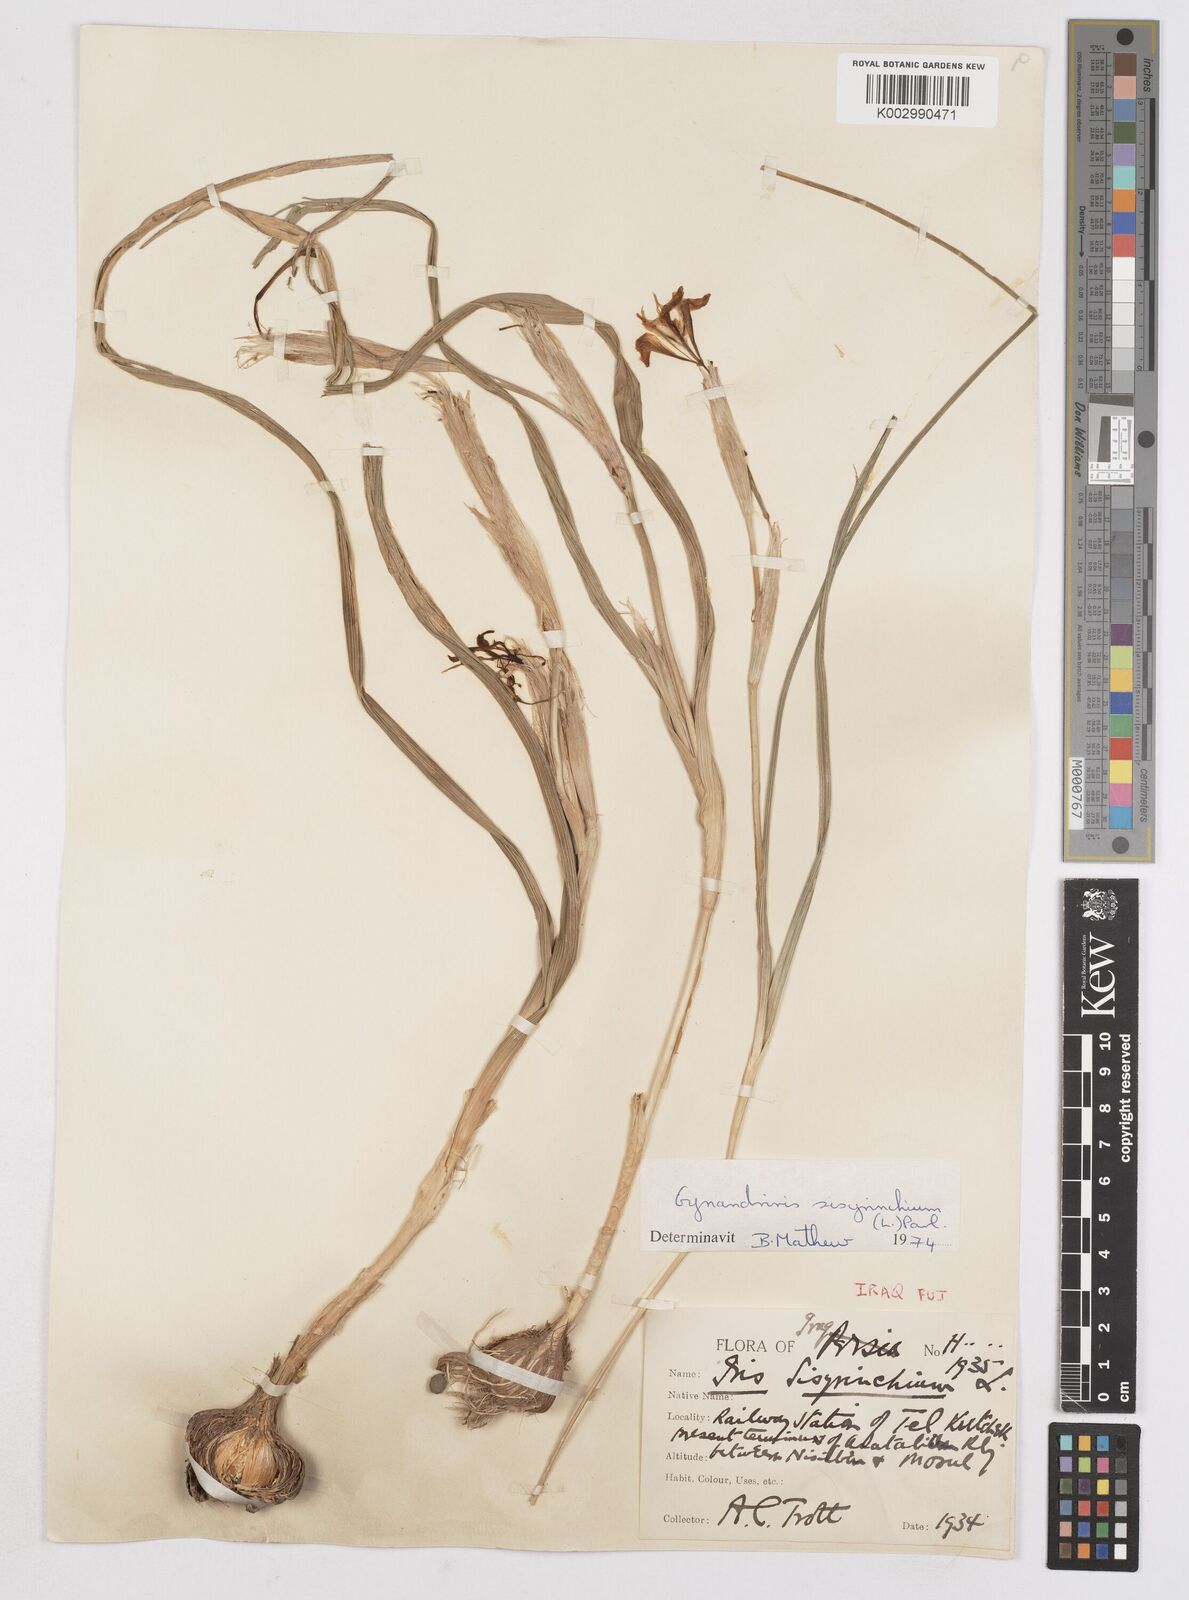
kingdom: Plantae
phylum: Tracheophyta
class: Liliopsida
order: Asparagales
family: Iridaceae
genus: Moraea
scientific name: Moraea sisyrinchium
